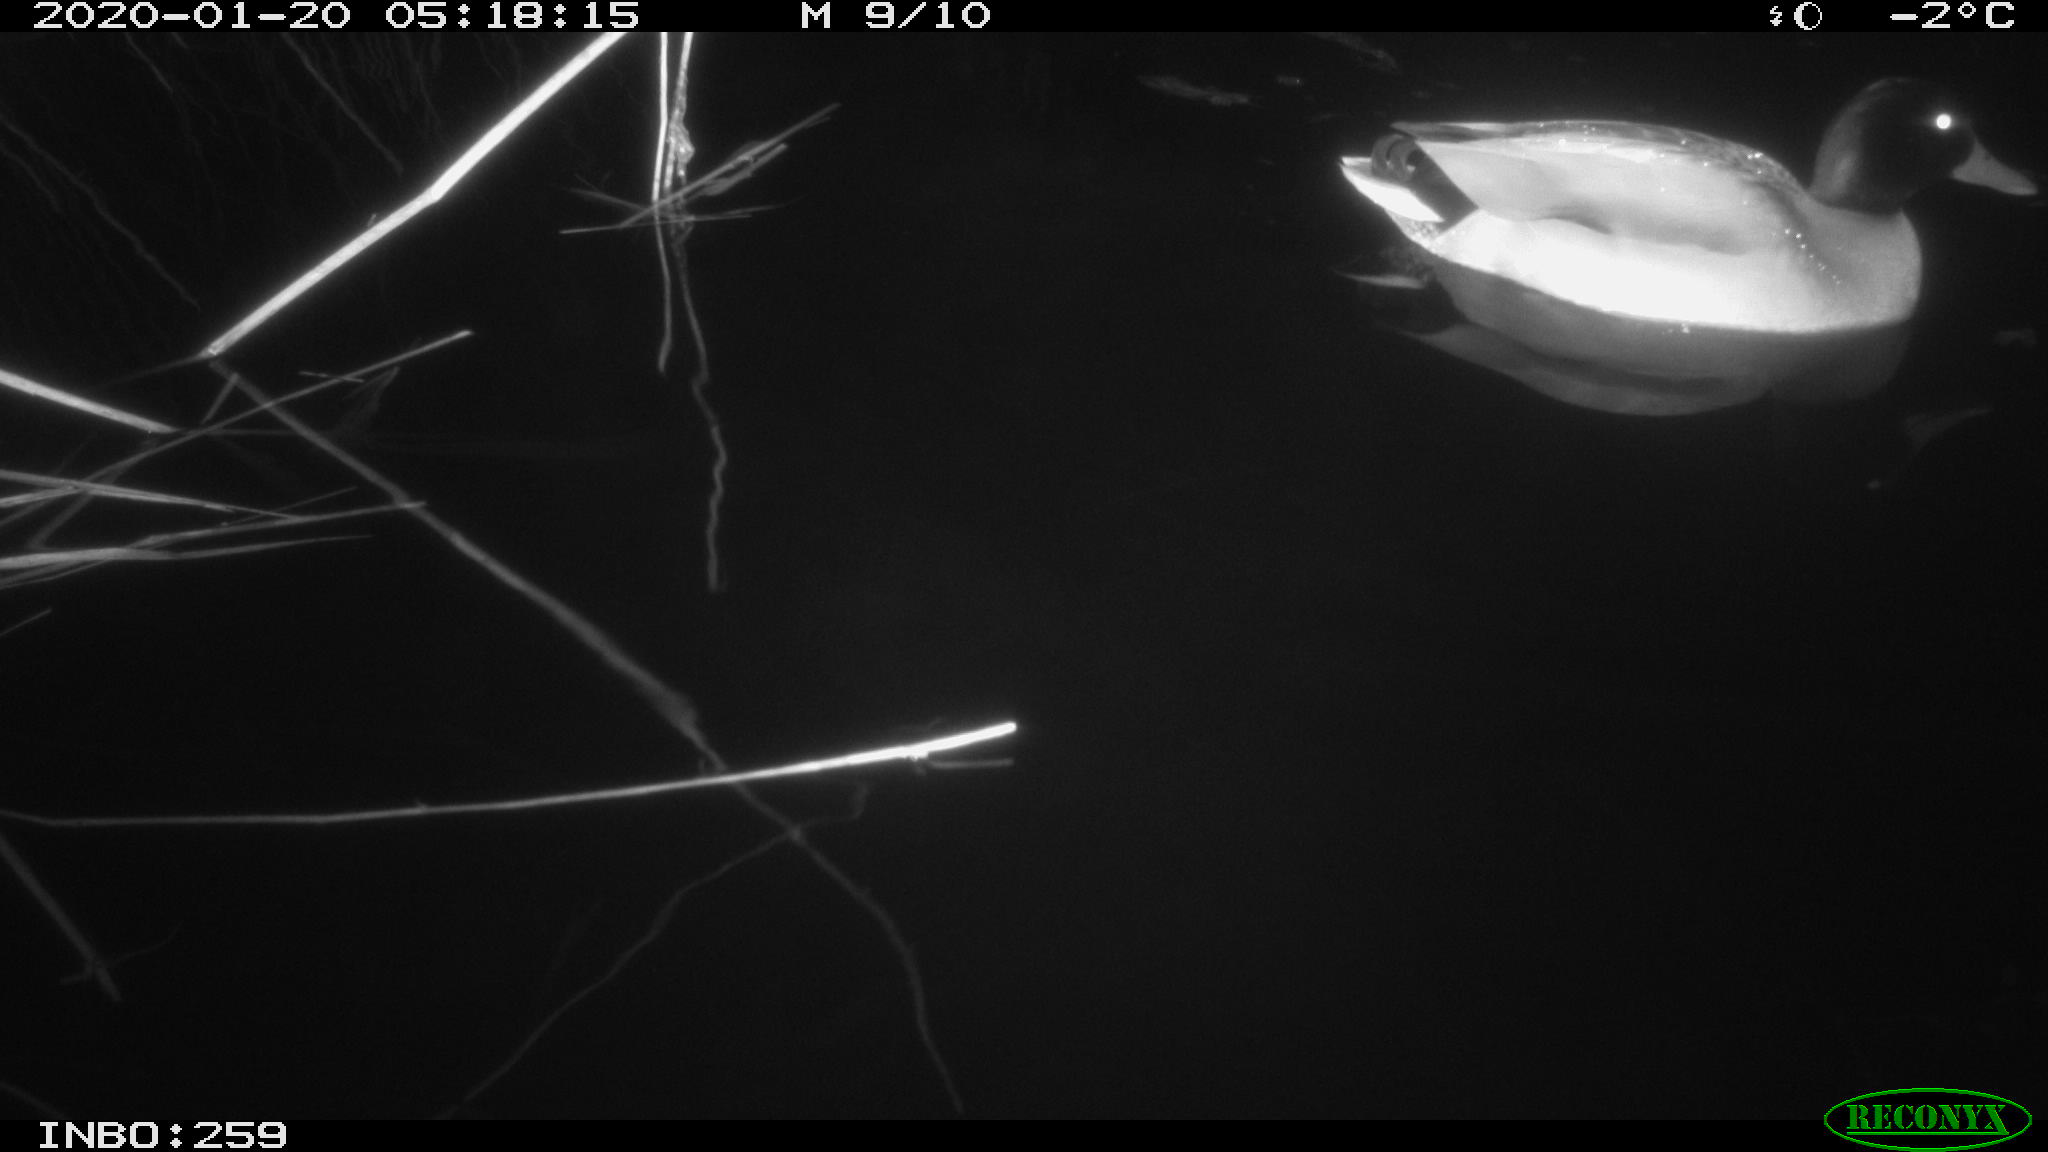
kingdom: Animalia
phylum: Chordata
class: Aves
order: Anseriformes
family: Anatidae
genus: Anas
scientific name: Anas platyrhynchos
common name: Mallard
